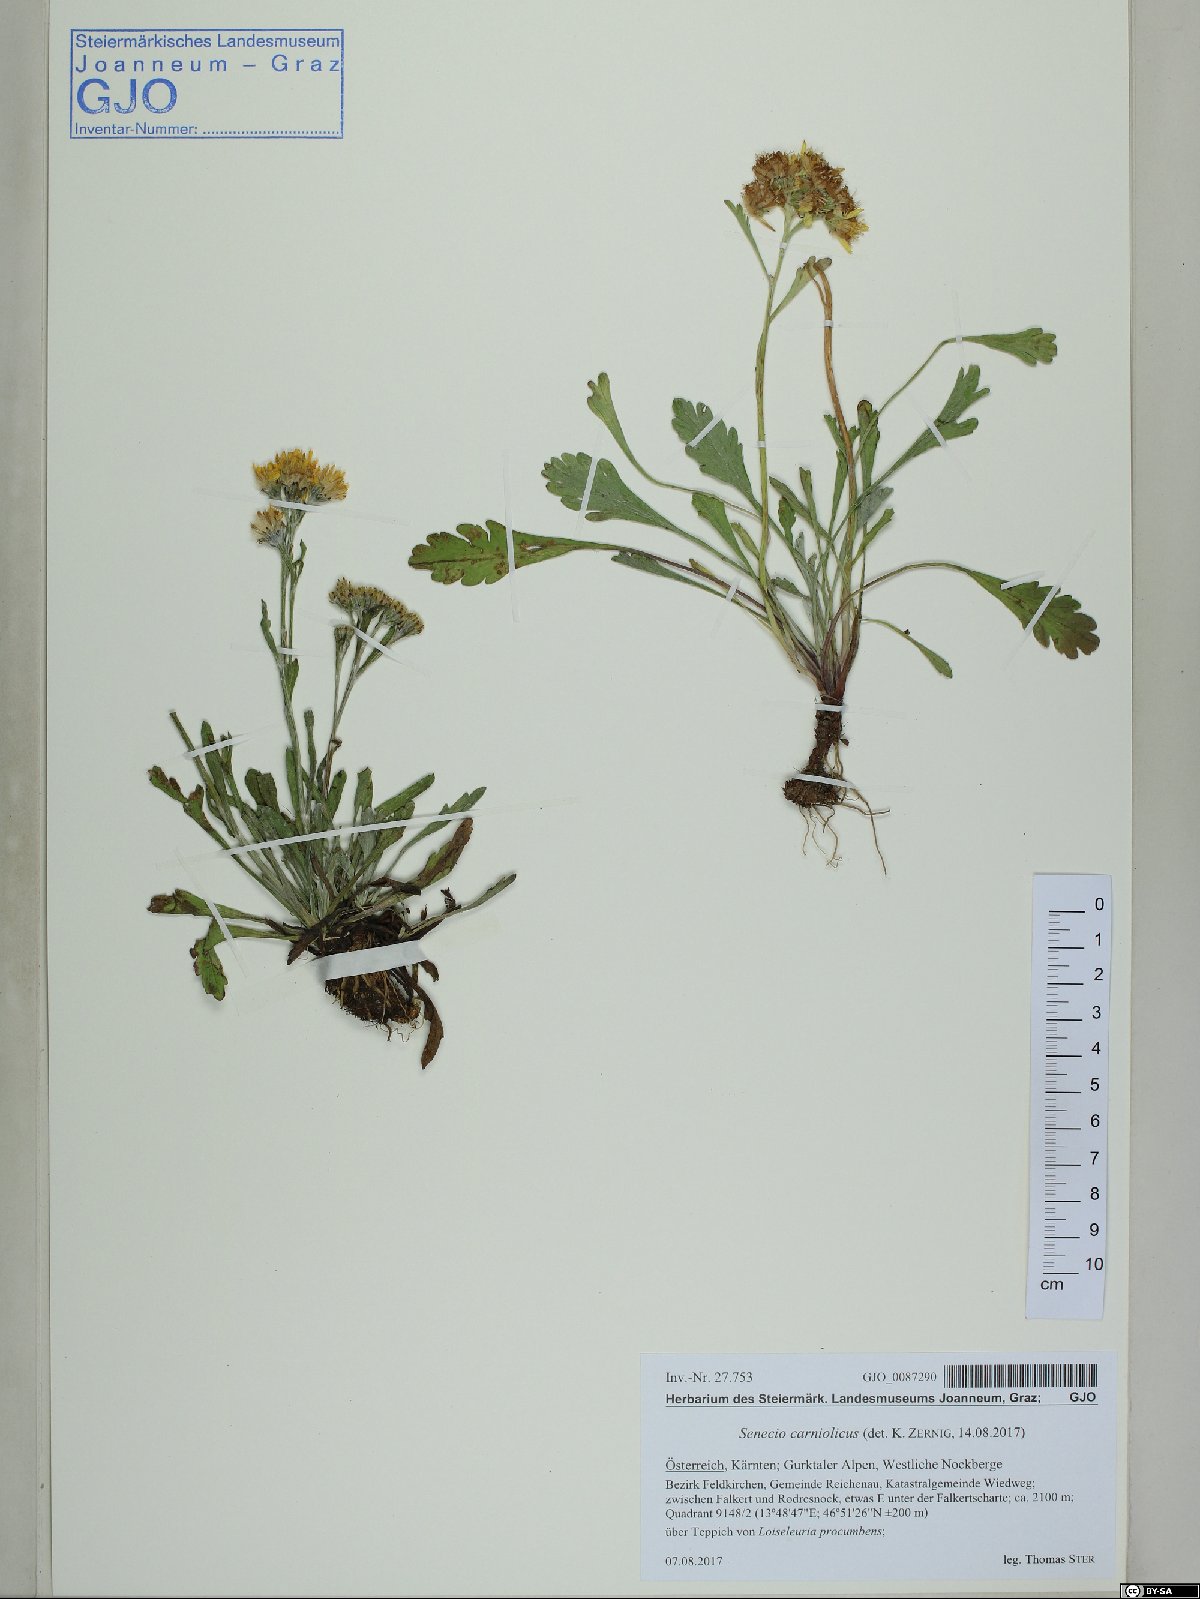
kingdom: Plantae
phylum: Tracheophyta
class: Magnoliopsida
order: Asterales
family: Asteraceae
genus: Jacobaea
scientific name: Jacobaea carniolica
